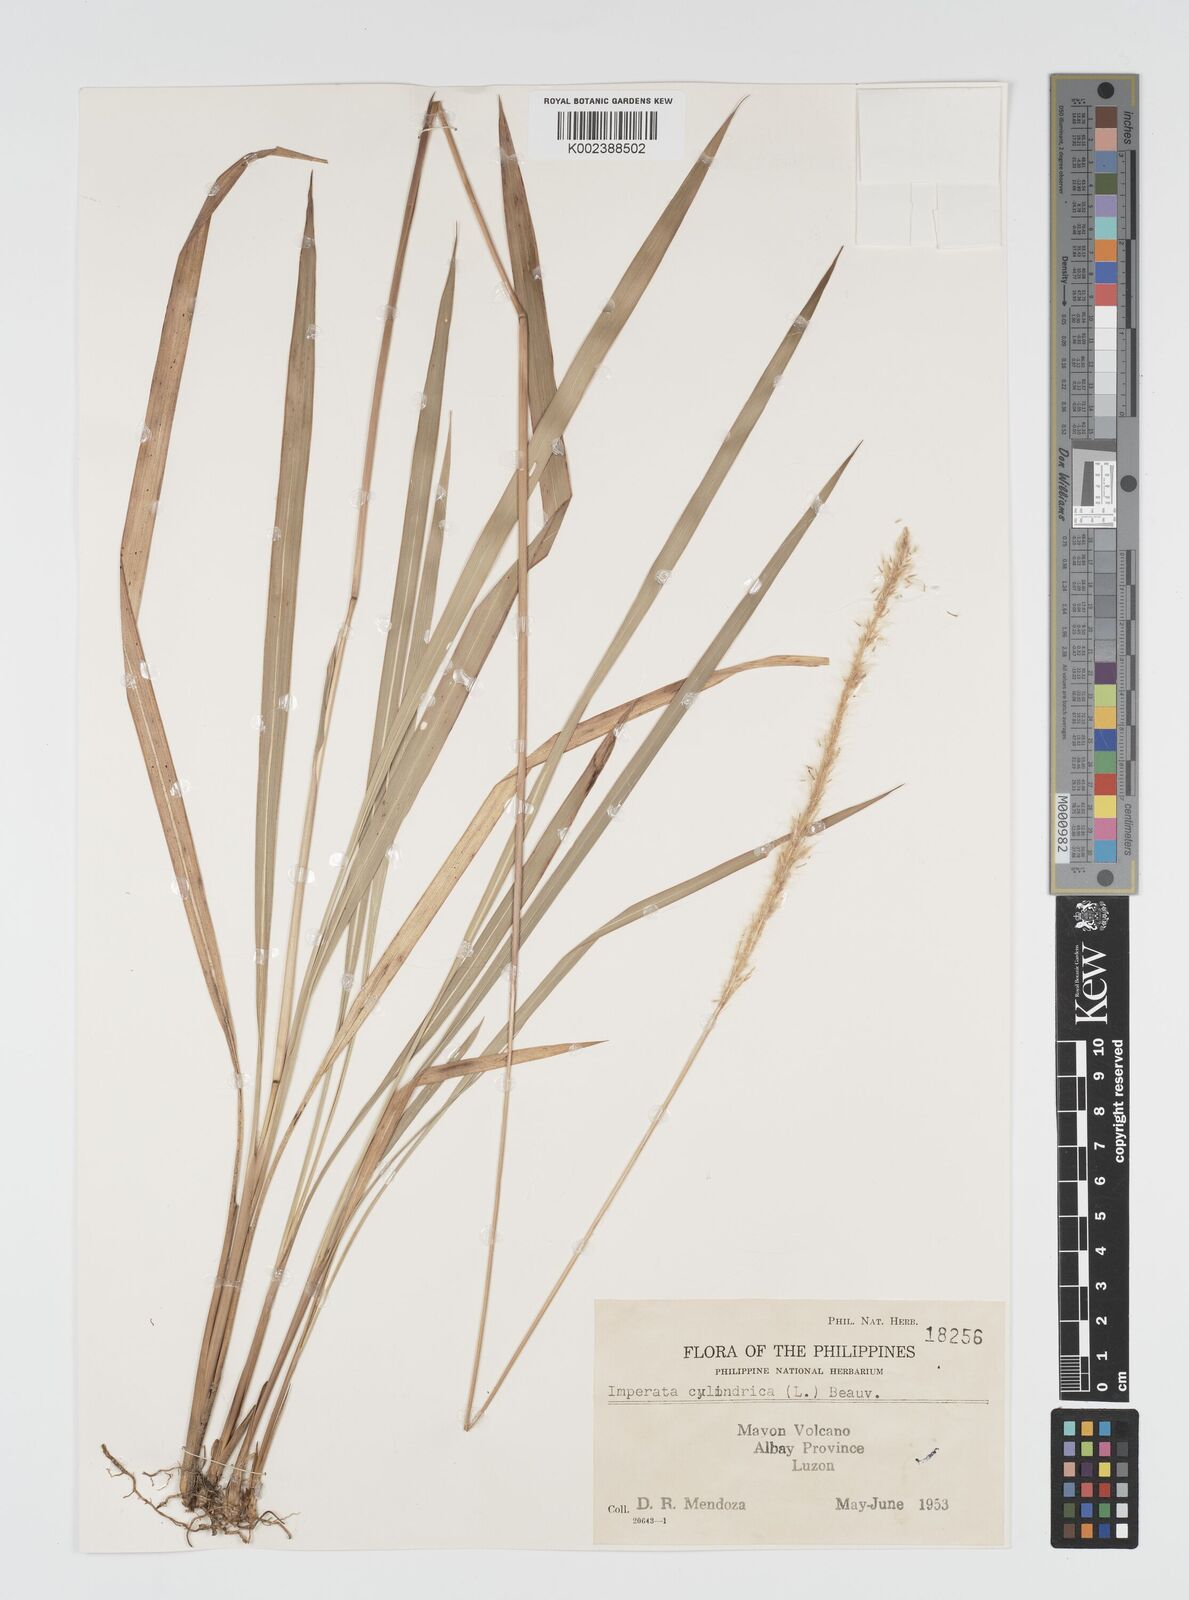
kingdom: Plantae
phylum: Tracheophyta
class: Liliopsida
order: Poales
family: Poaceae
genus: Imperata
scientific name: Imperata cylindrica
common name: Cogongrass
